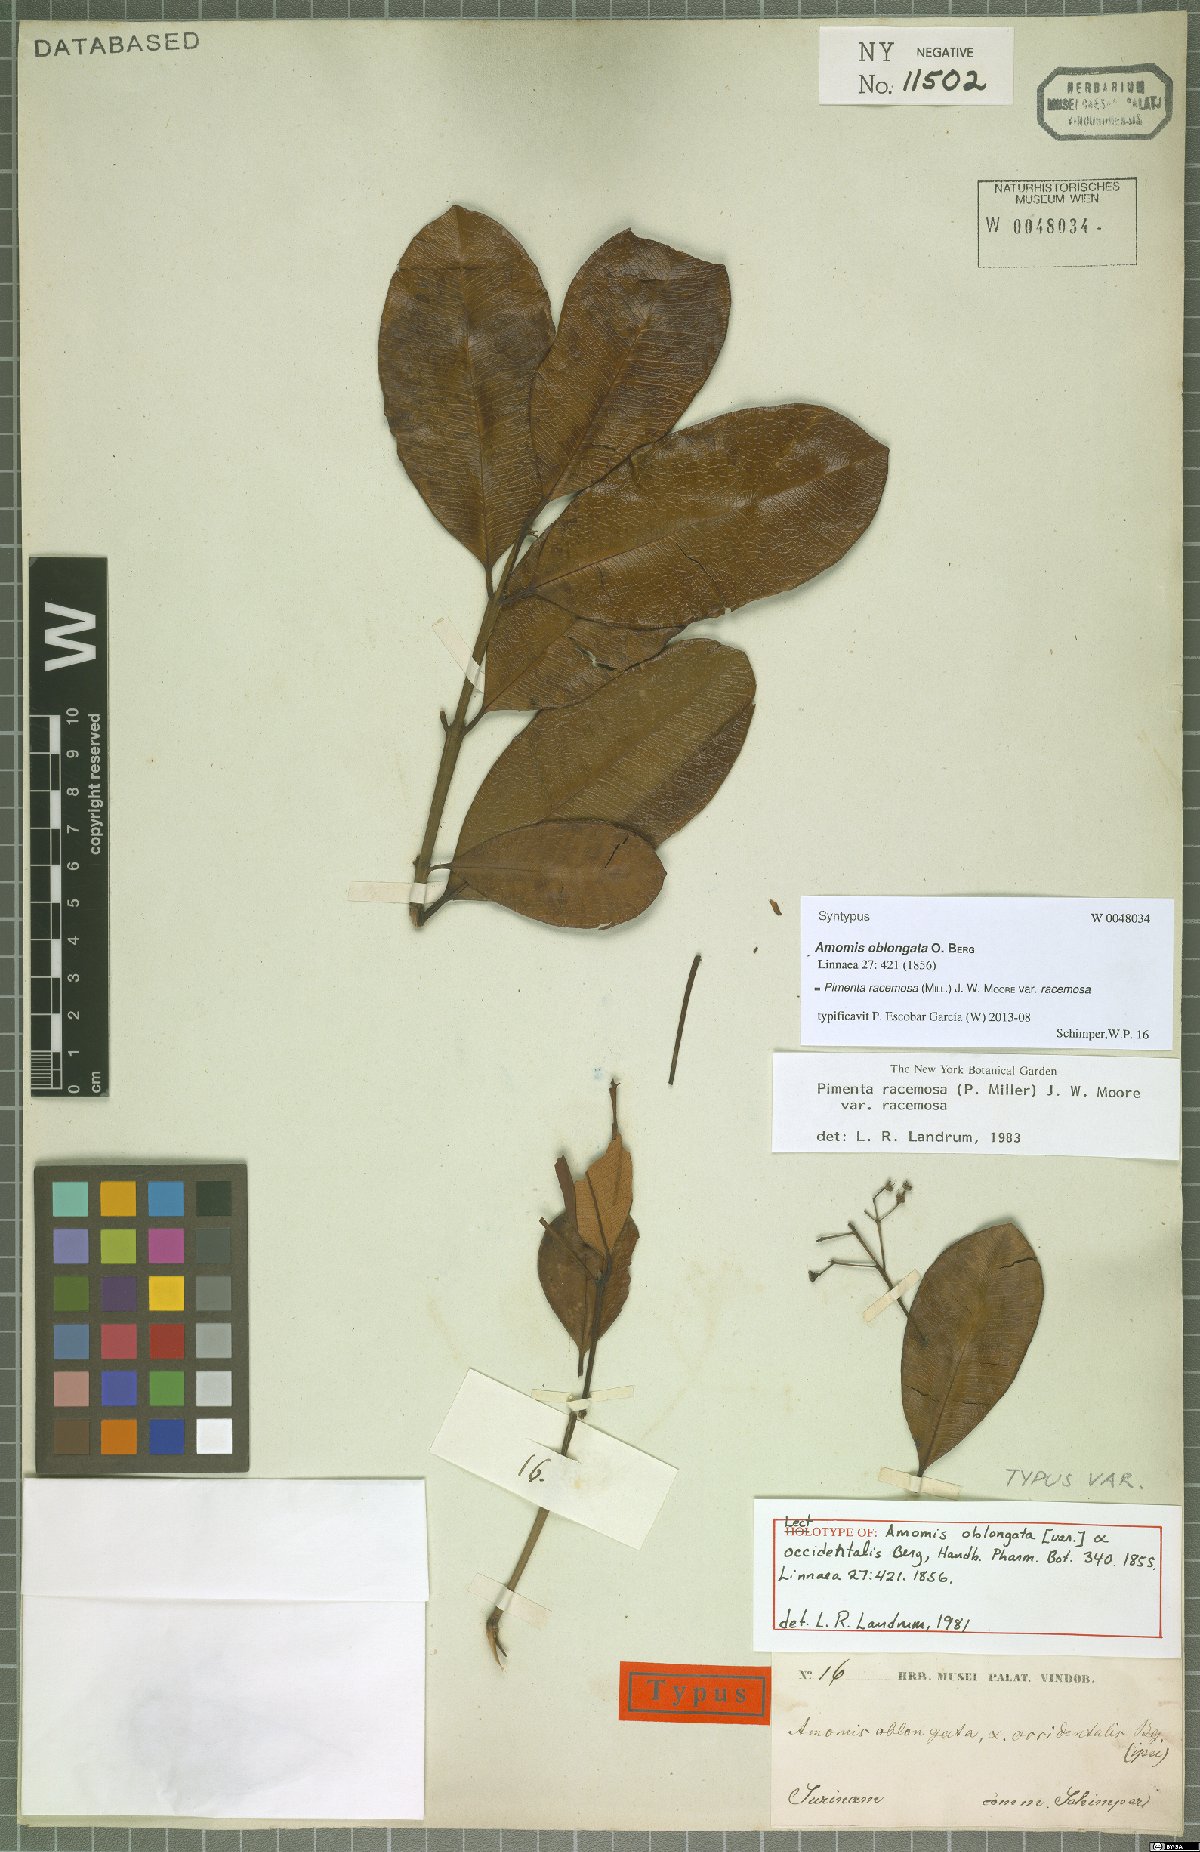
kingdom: Plantae
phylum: Tracheophyta
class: Magnoliopsida
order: Myrtales
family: Myrtaceae
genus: Pimenta
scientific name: Pimenta racemosa
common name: Bay rum tree
